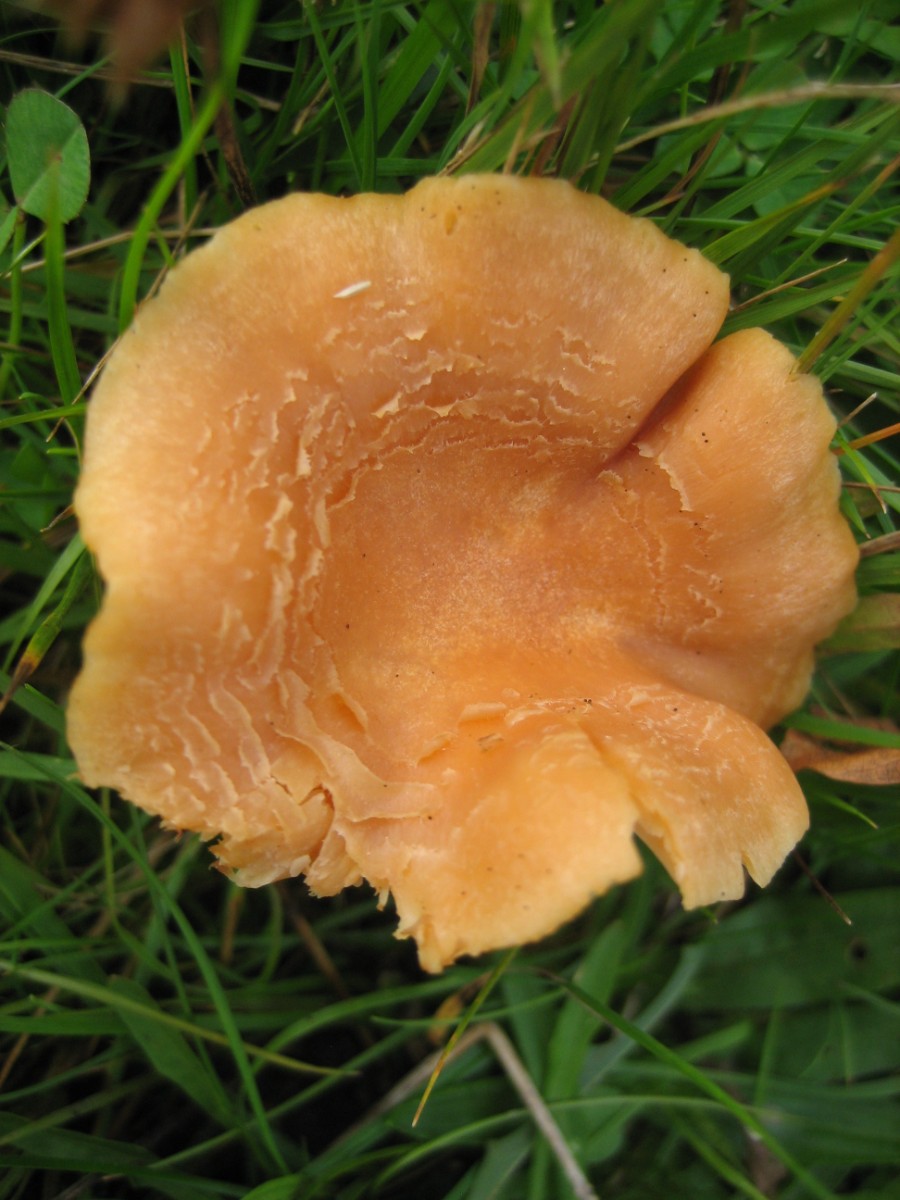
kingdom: Fungi
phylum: Basidiomycota
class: Agaricomycetes
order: Agaricales
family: Hygrophoraceae
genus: Cuphophyllus
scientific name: Cuphophyllus pratensis
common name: eng-vokshat
